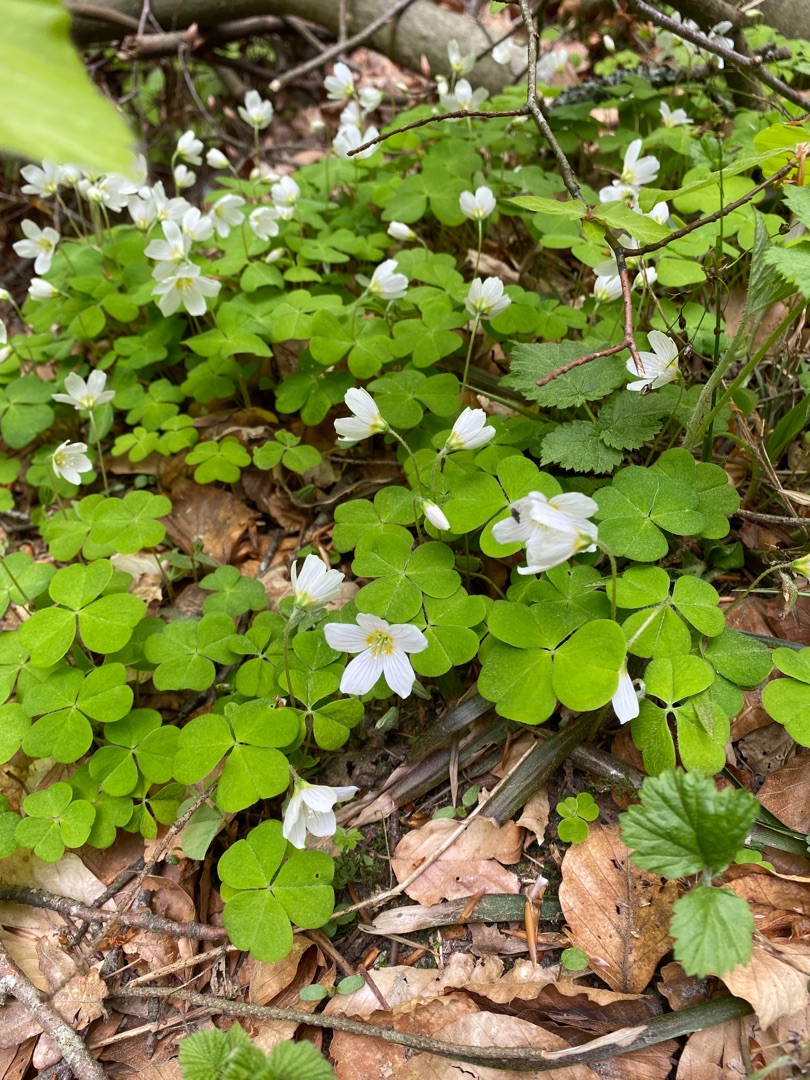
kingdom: Plantae
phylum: Tracheophyta
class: Magnoliopsida
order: Oxalidales
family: Oxalidaceae
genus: Oxalis
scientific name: Oxalis acetosella
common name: Skovsyre
